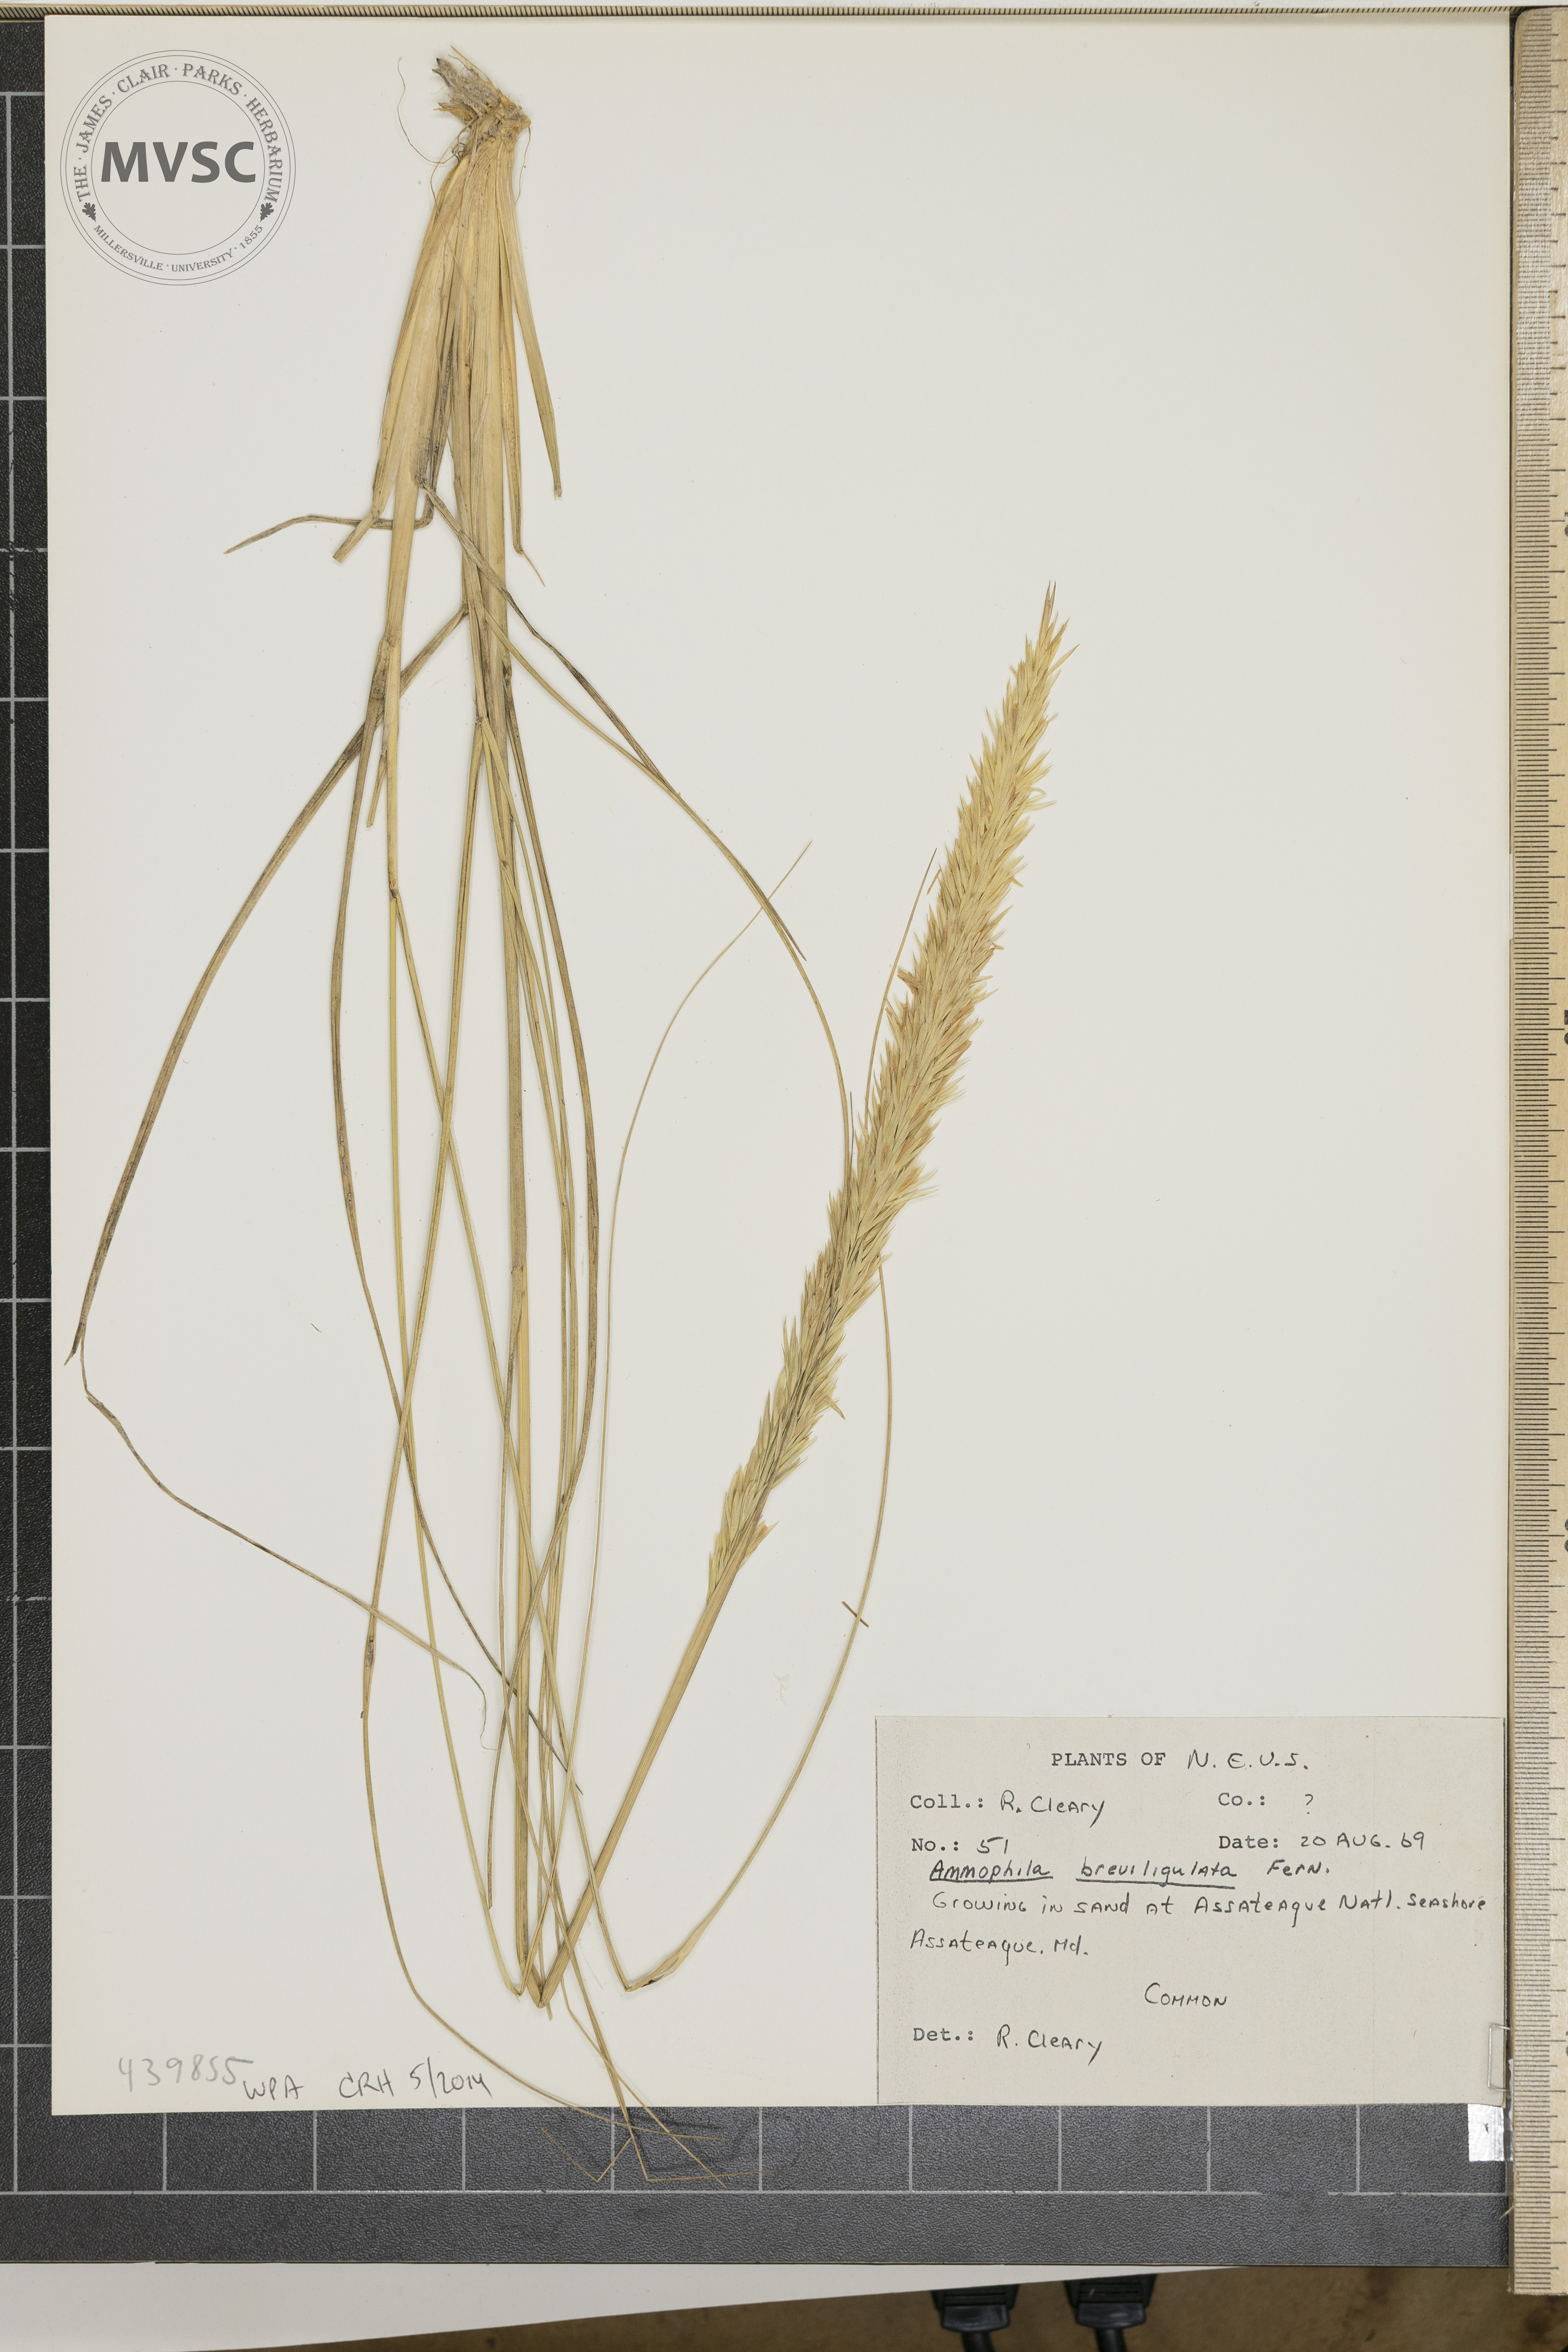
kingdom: Plantae
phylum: Tracheophyta
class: Liliopsida
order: Poales
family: Poaceae
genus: Calamagrostis
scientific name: Calamagrostis breviligulata
